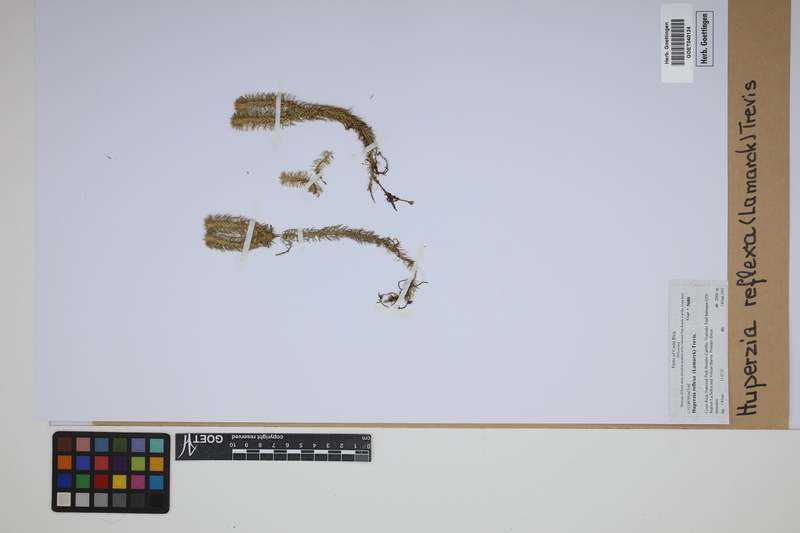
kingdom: Plantae
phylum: Tracheophyta
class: Lycopodiopsida
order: Lycopodiales
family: Lycopodiaceae
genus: Phlegmariurus
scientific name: Phlegmariurus reflexus
